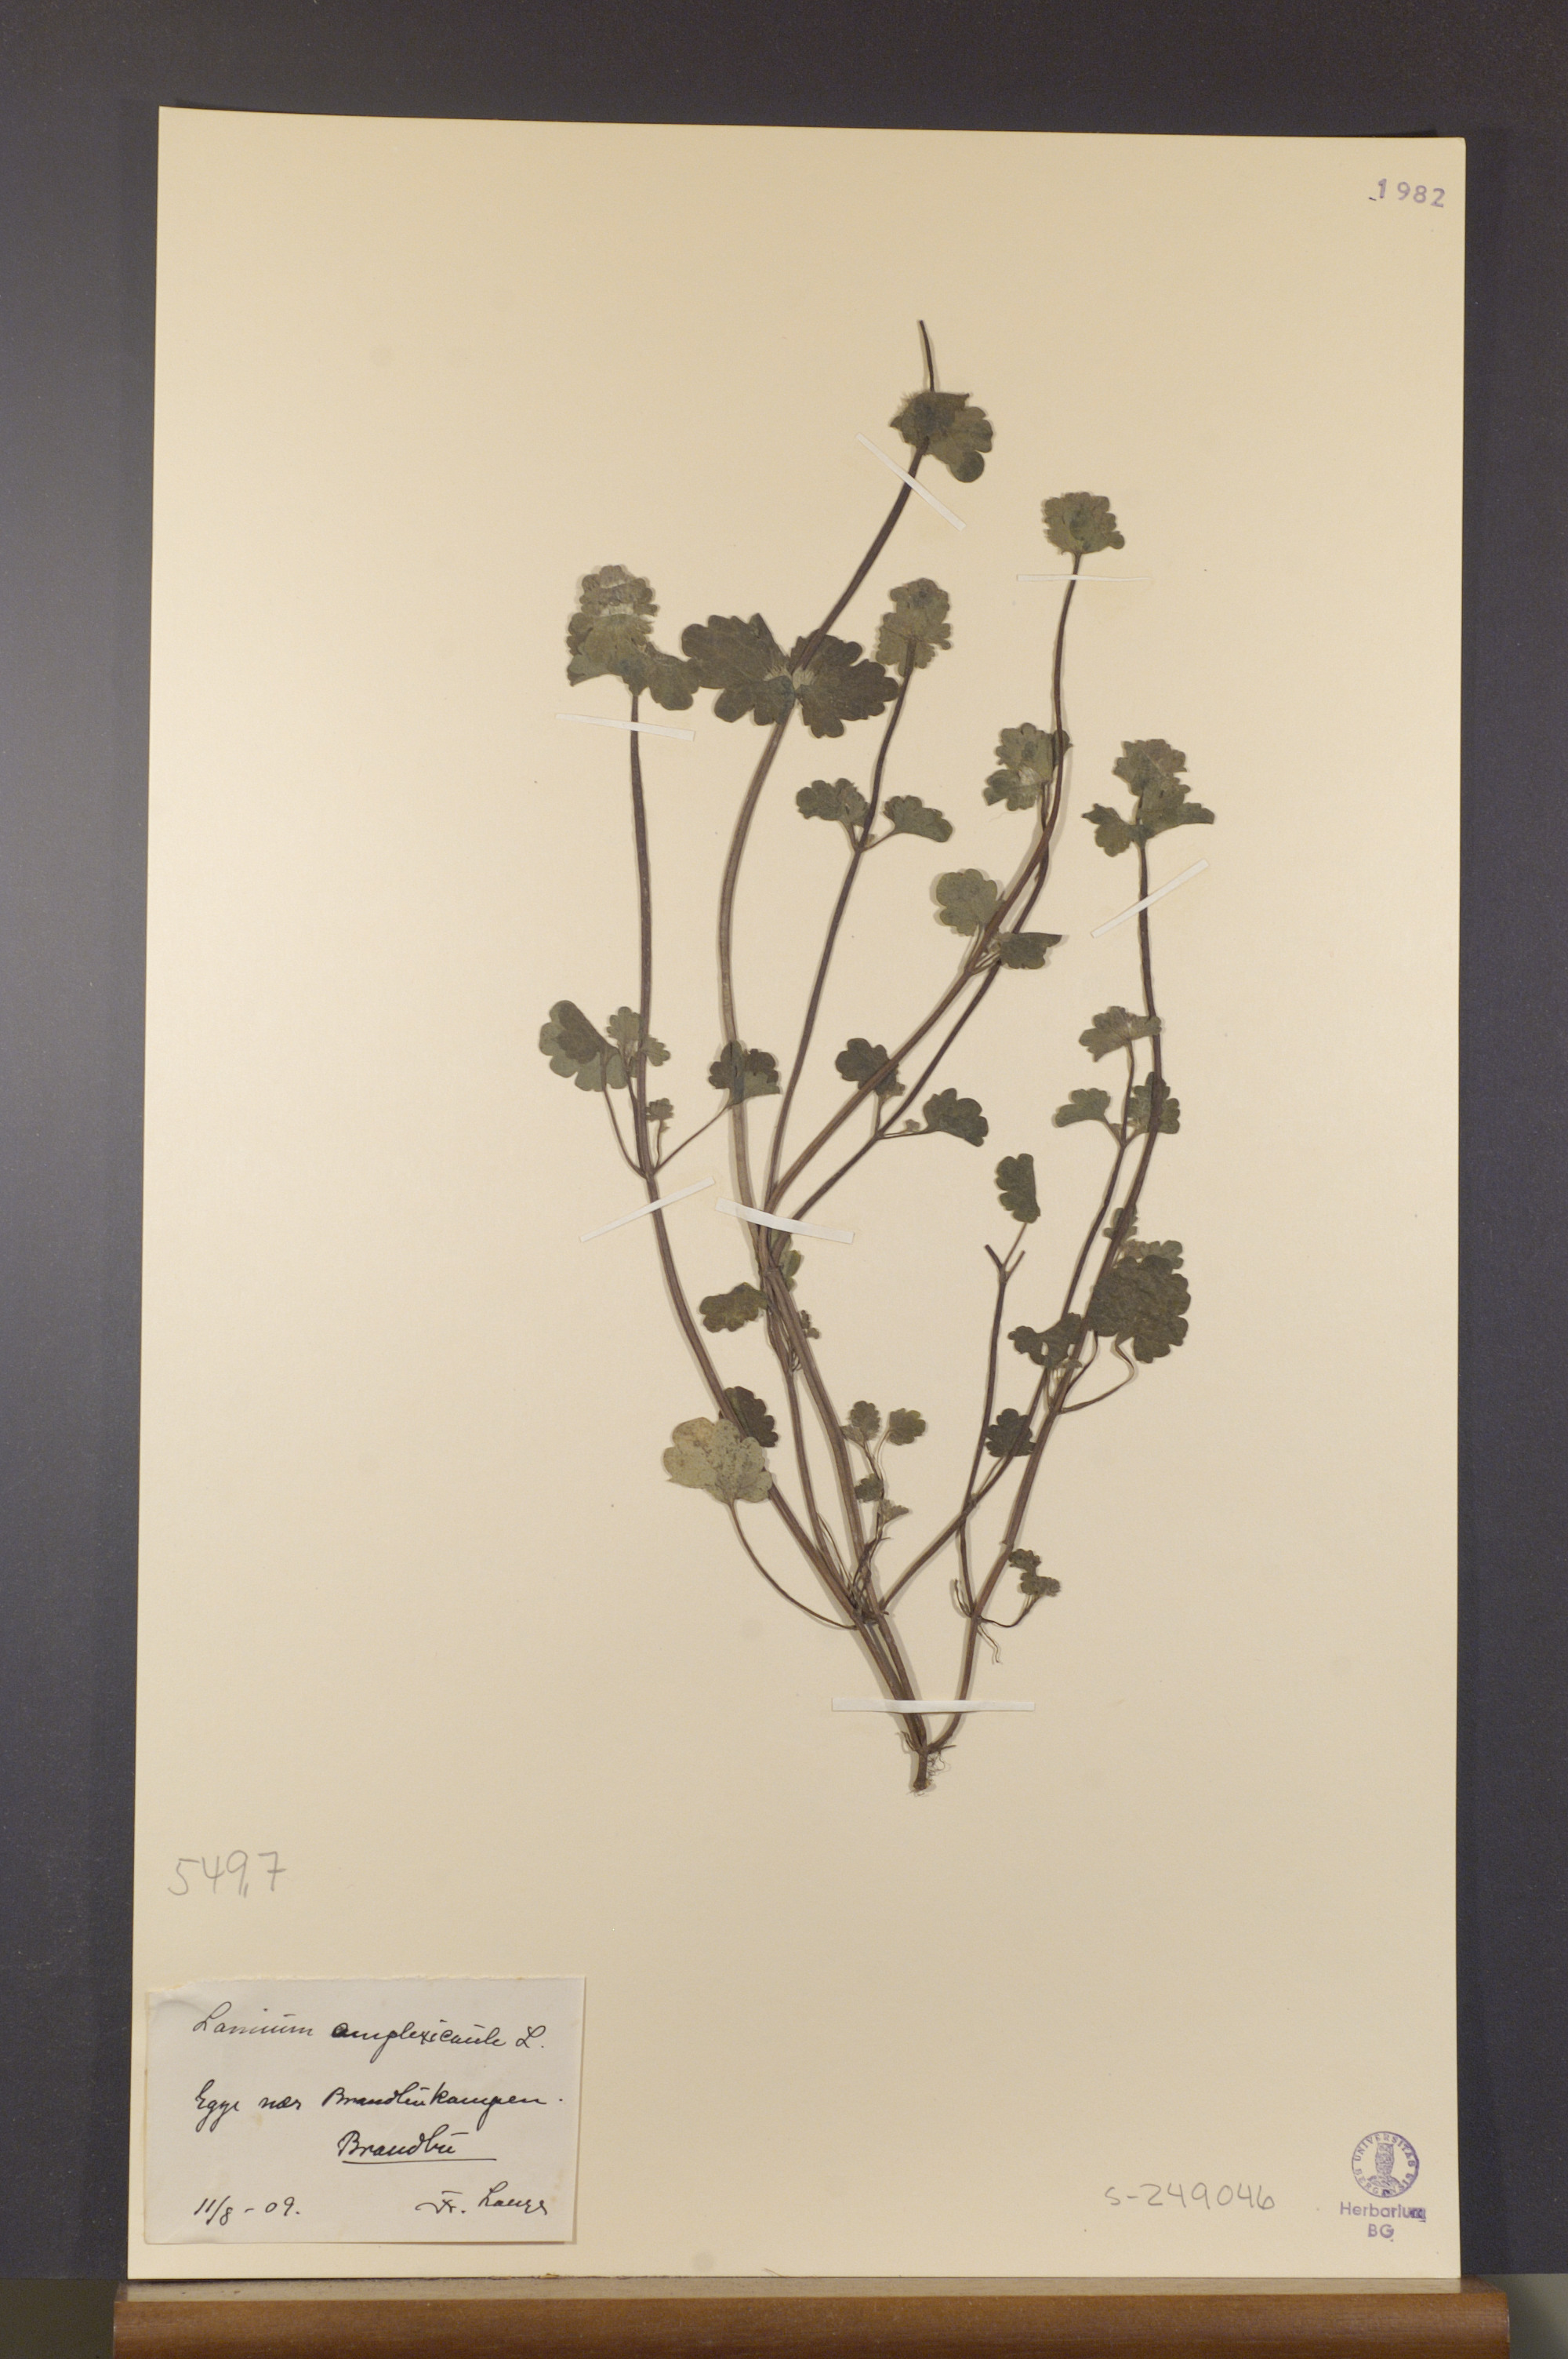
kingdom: Plantae
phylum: Tracheophyta
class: Magnoliopsida
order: Lamiales
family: Lamiaceae
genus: Lamium
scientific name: Lamium amplexicaule
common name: Henbit dead-nettle
